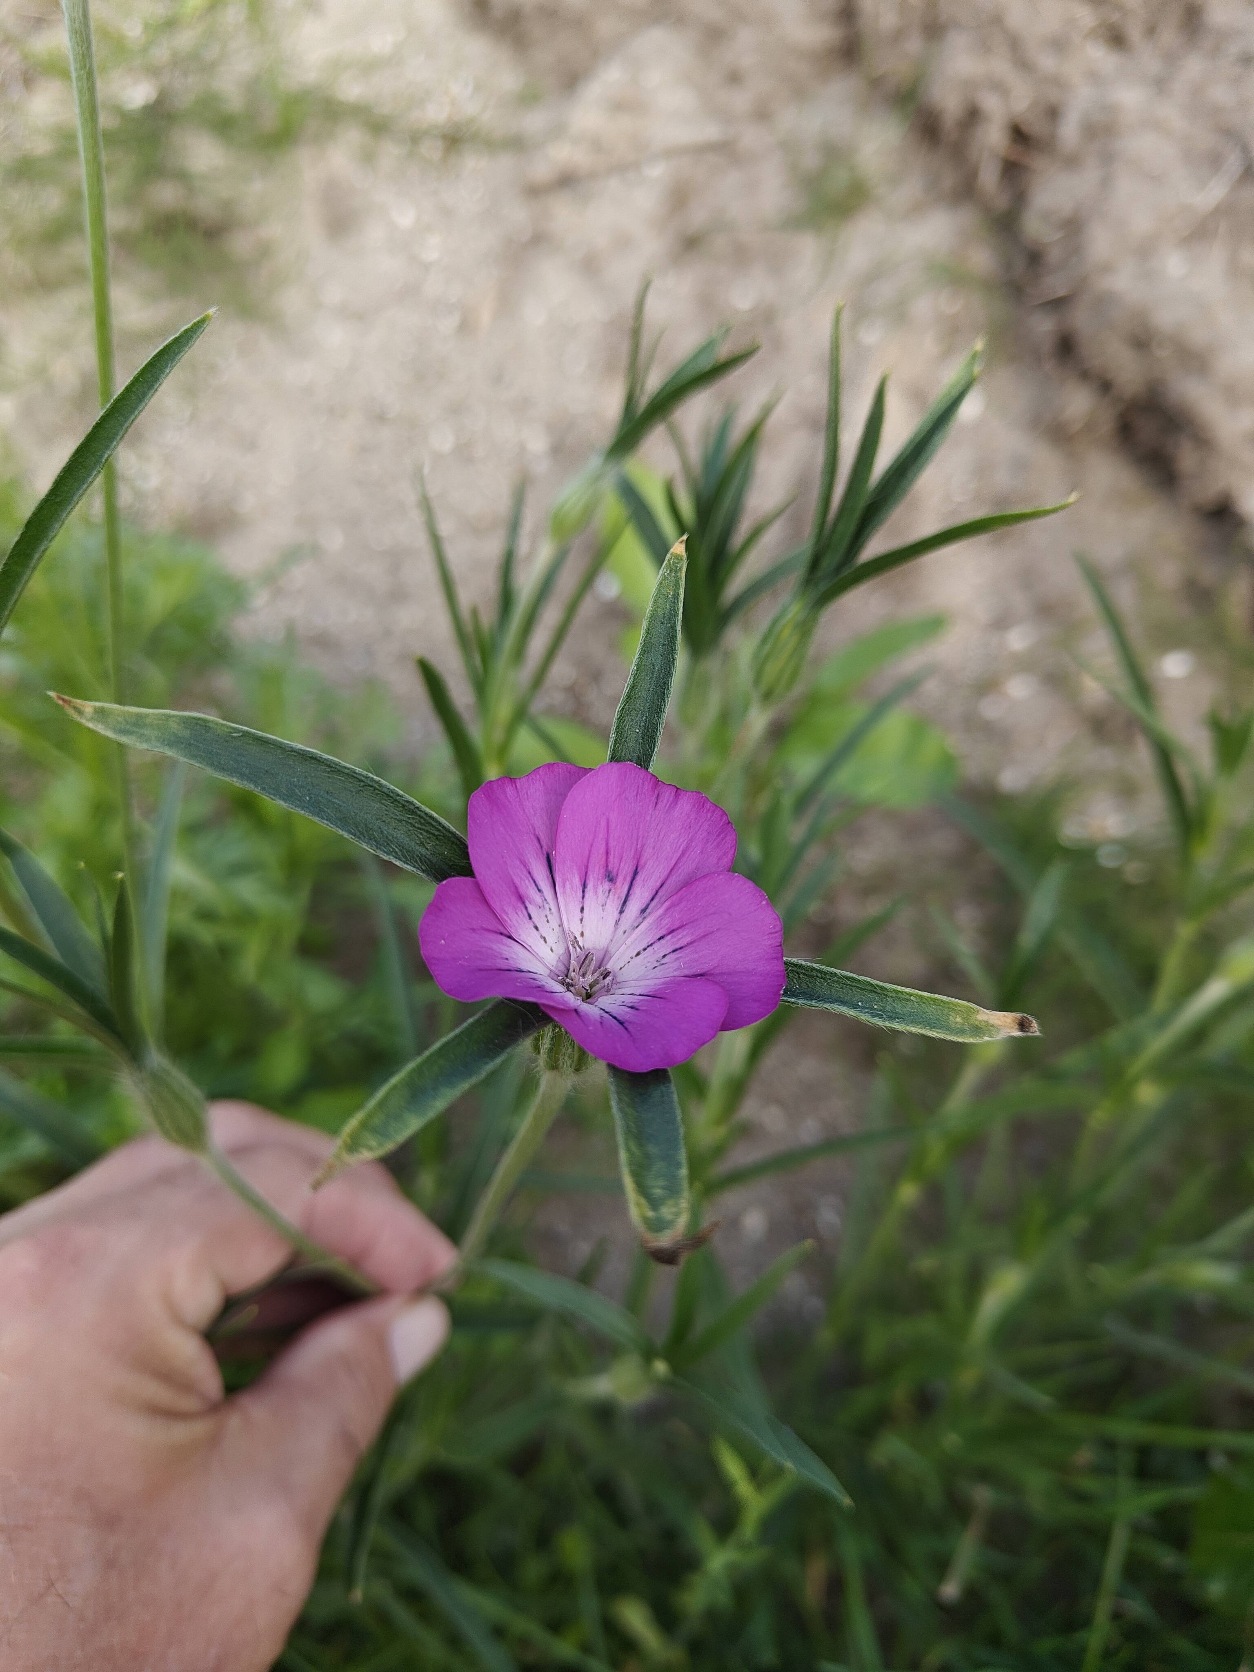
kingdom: Plantae
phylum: Tracheophyta
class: Magnoliopsida
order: Caryophyllales
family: Caryophyllaceae
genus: Agrostemma
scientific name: Agrostemma githago
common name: Klinte
